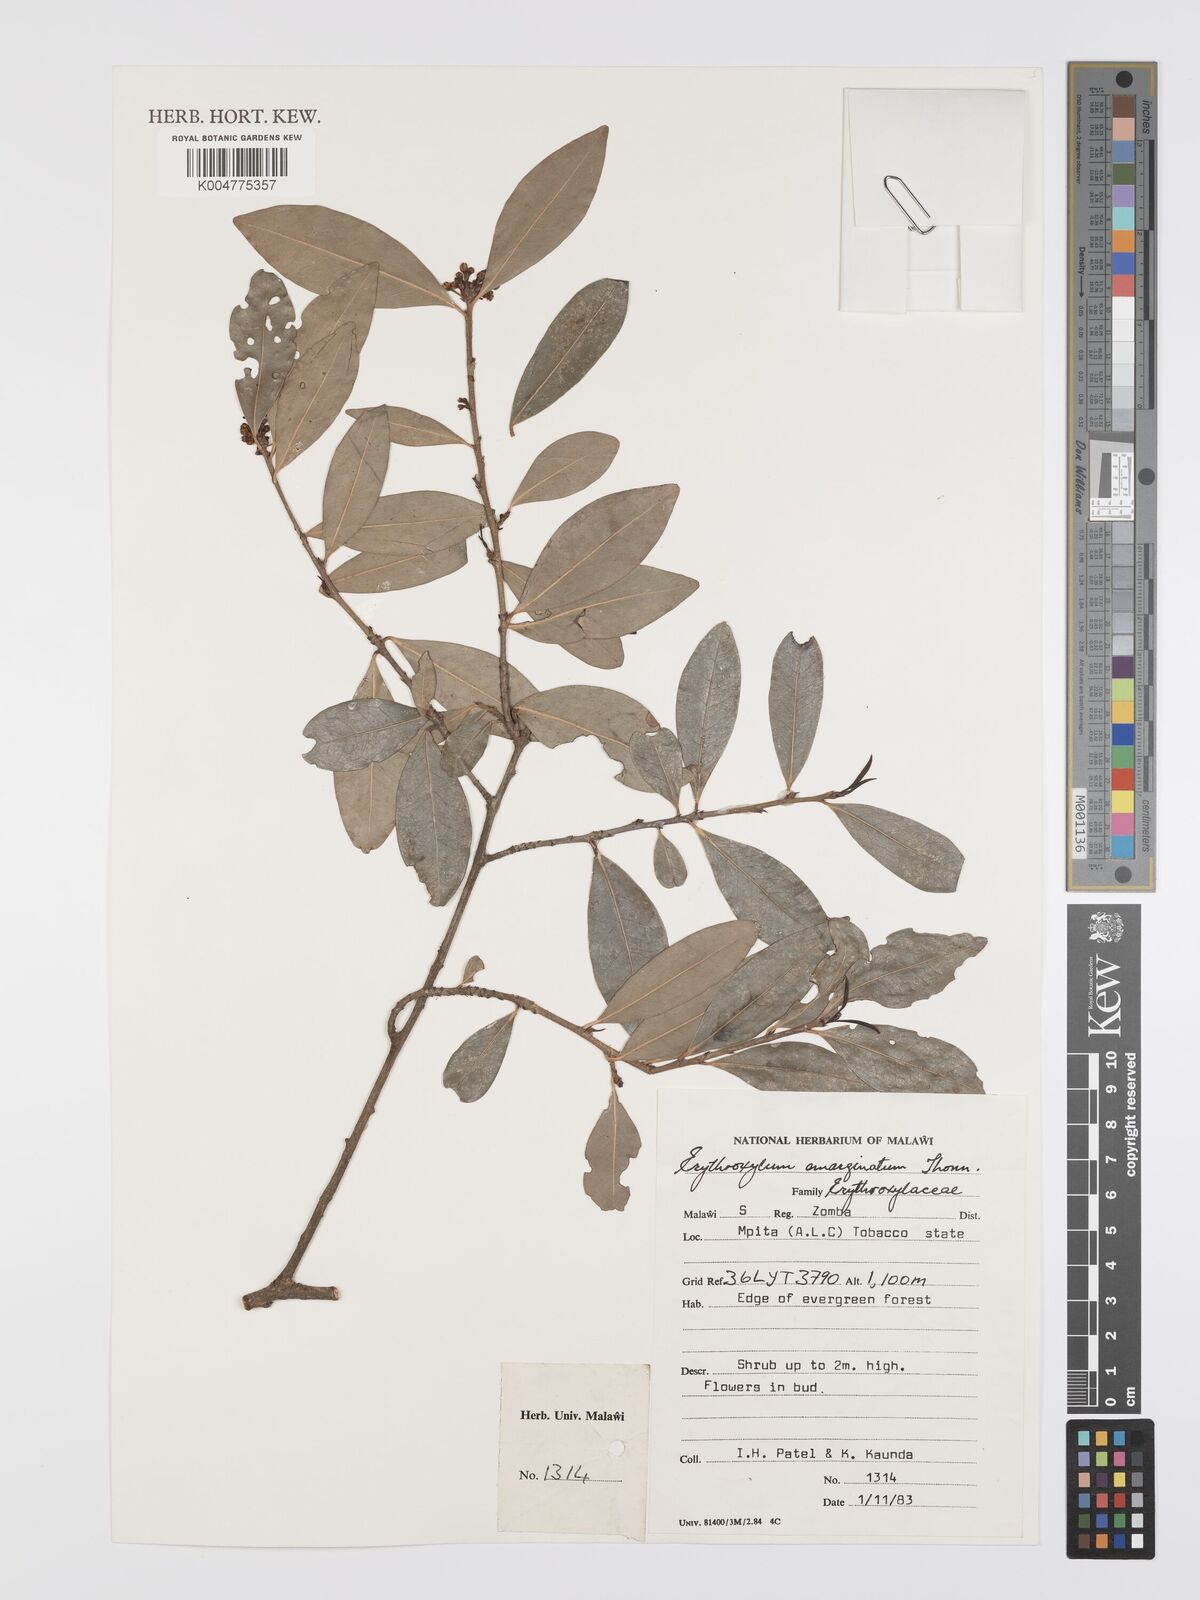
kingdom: Plantae
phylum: Tracheophyta
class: Magnoliopsida
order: Malpighiales
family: Erythroxylaceae
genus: Erythroxylum
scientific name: Erythroxylum emarginatum
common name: African coca-tree
